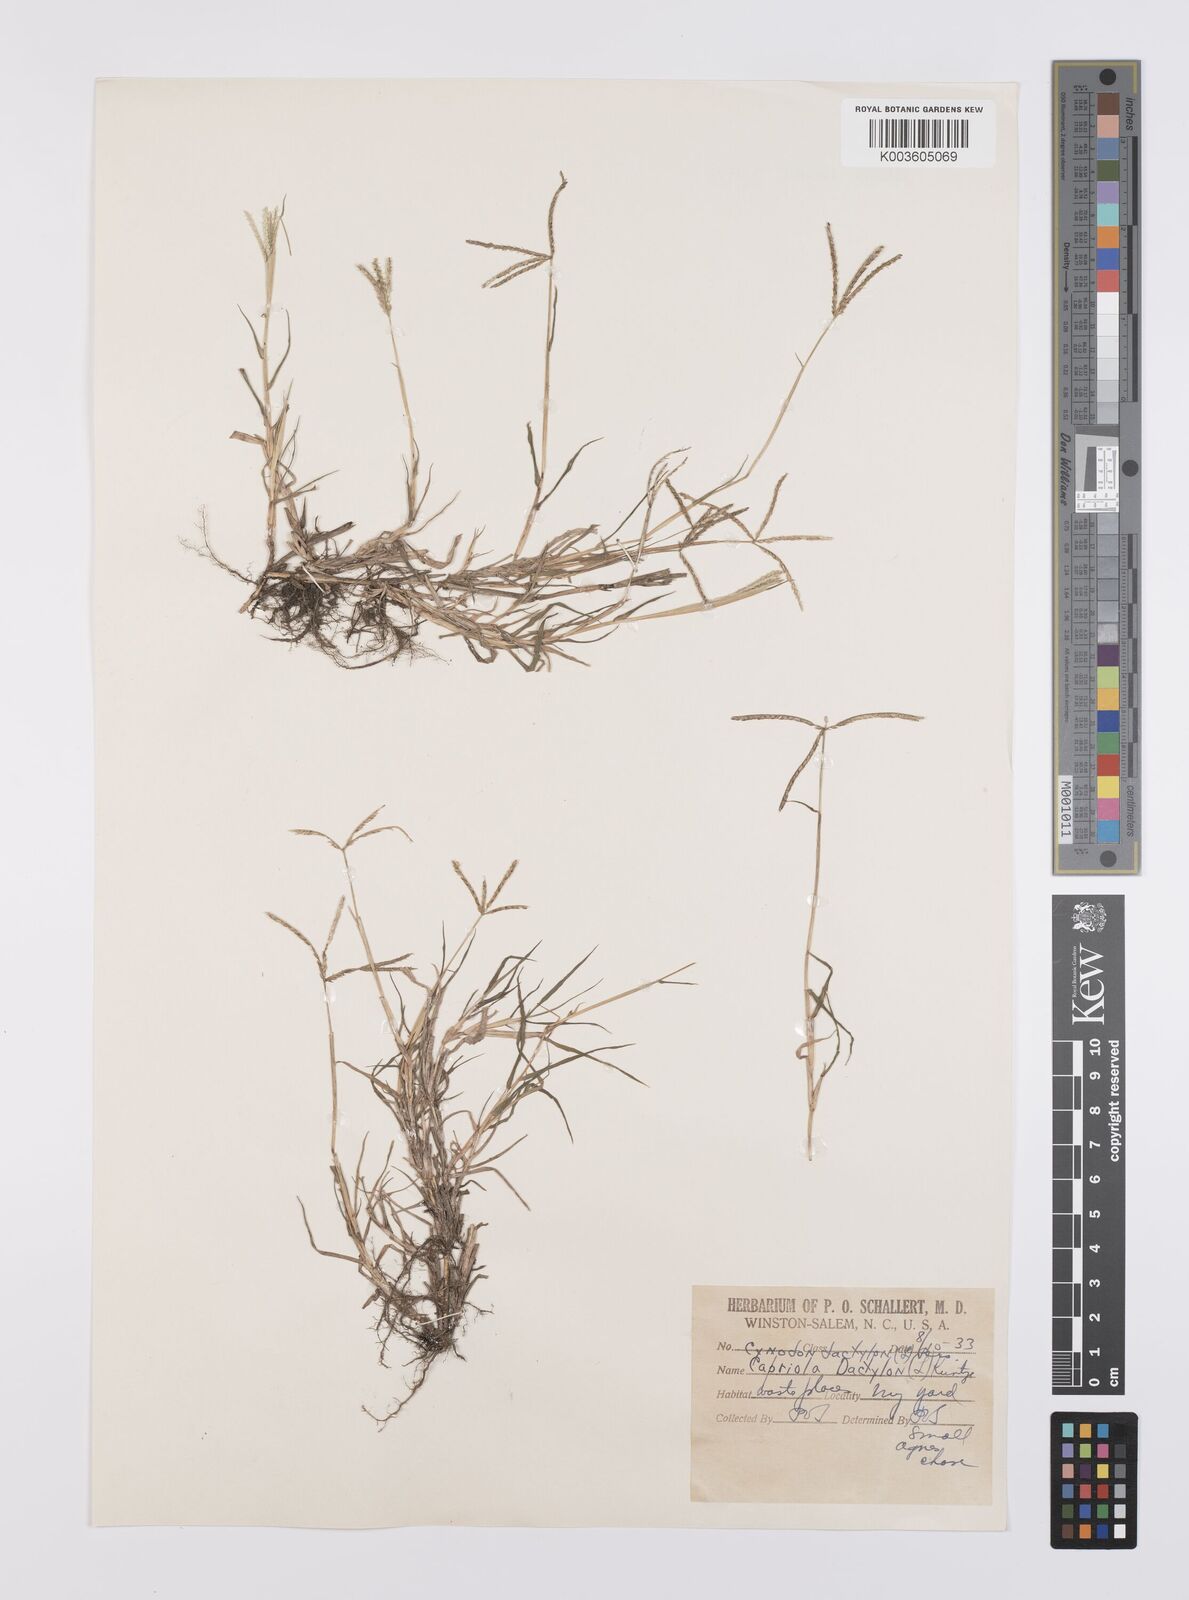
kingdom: Plantae
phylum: Tracheophyta
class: Liliopsida
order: Poales
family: Poaceae
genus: Cynodon
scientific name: Cynodon dactylon
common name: Bermuda grass
